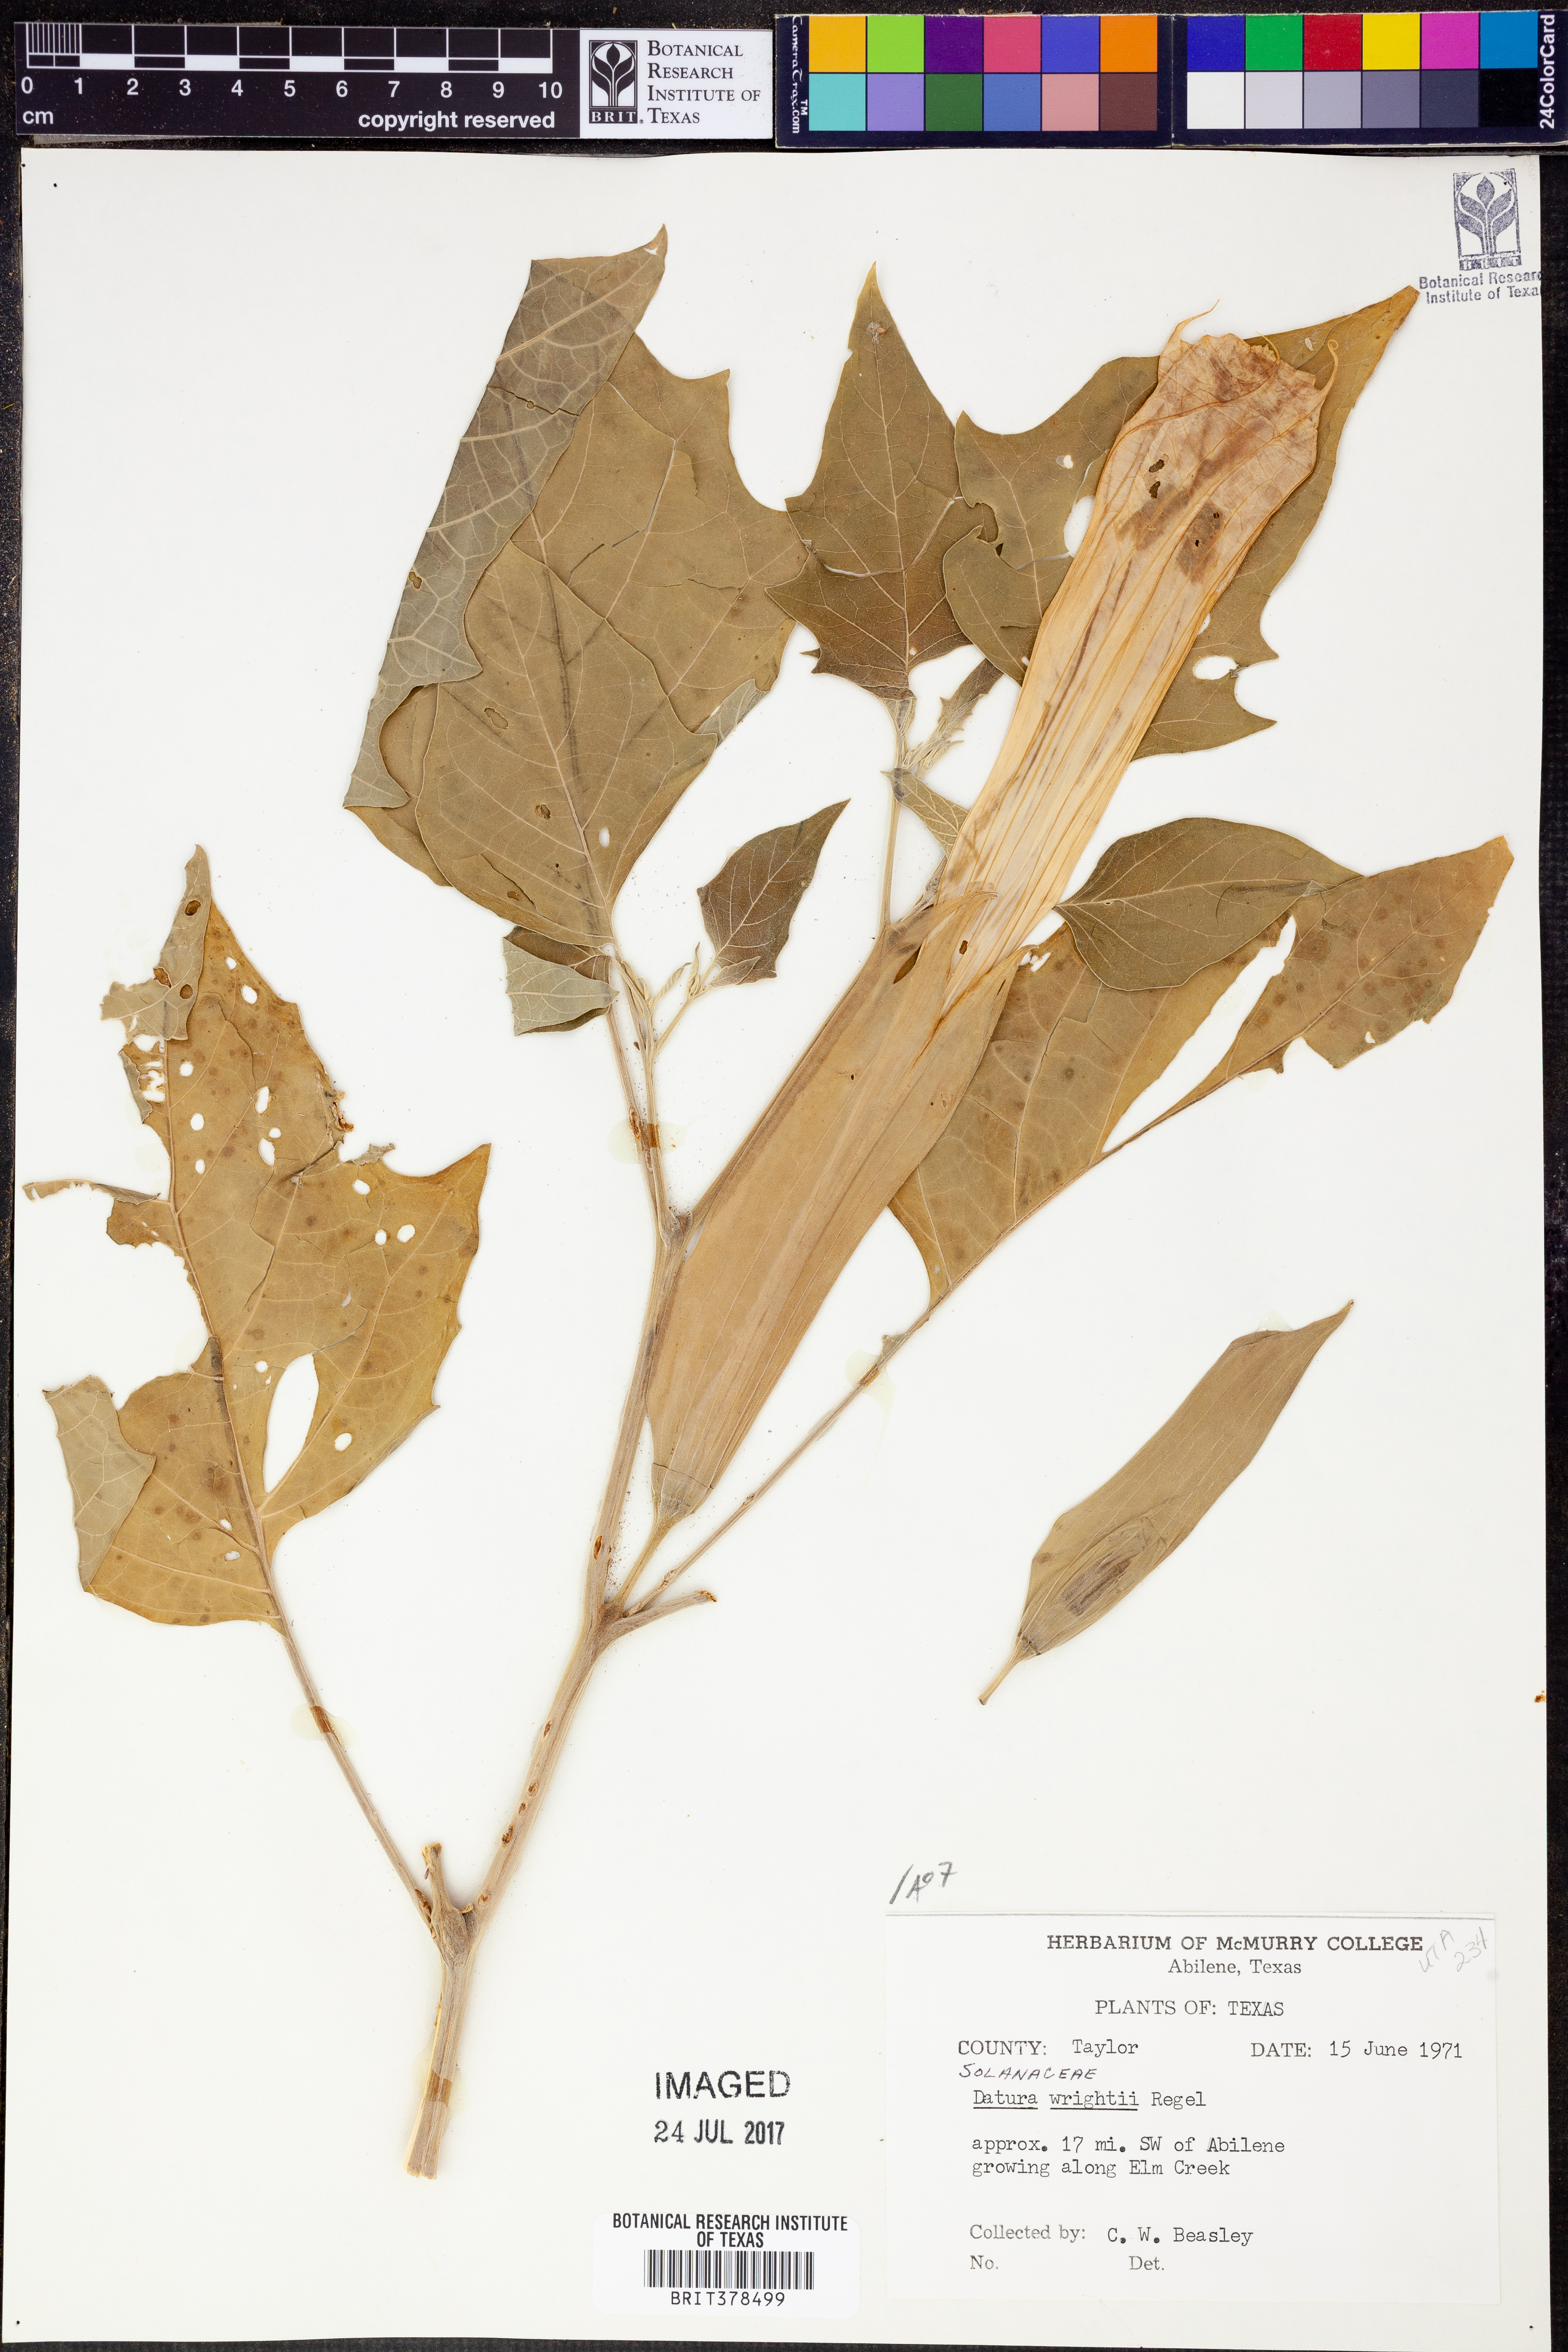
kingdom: Plantae
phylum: Tracheophyta
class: Magnoliopsida
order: Solanales
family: Solanaceae
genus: Datura
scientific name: Datura wrightii
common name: Sacred thorn-apple
